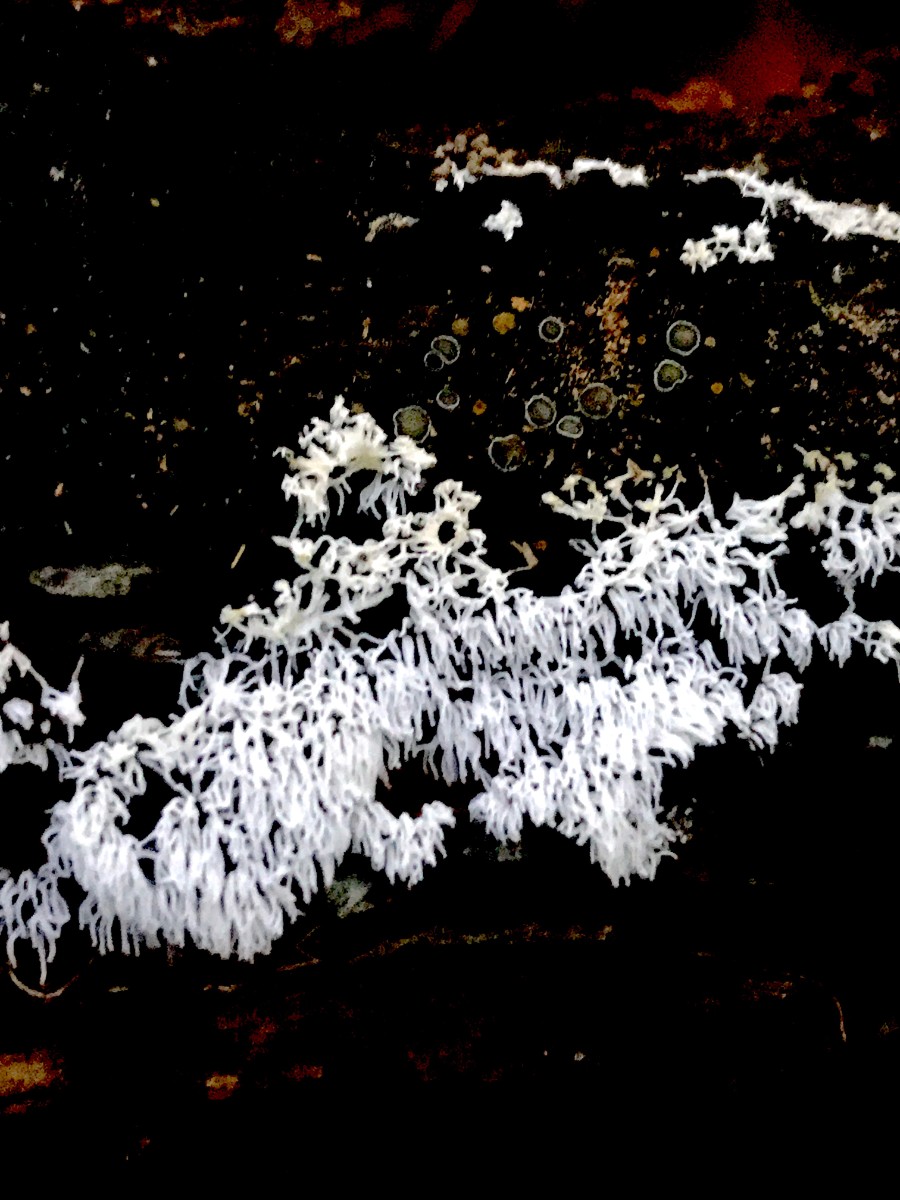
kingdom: Protozoa
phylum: Mycetozoa
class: Protosteliomycetes
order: Ceratiomyxales
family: Ceratiomyxaceae
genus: Ceratiomyxa
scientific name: Ceratiomyxa fruticulosa
